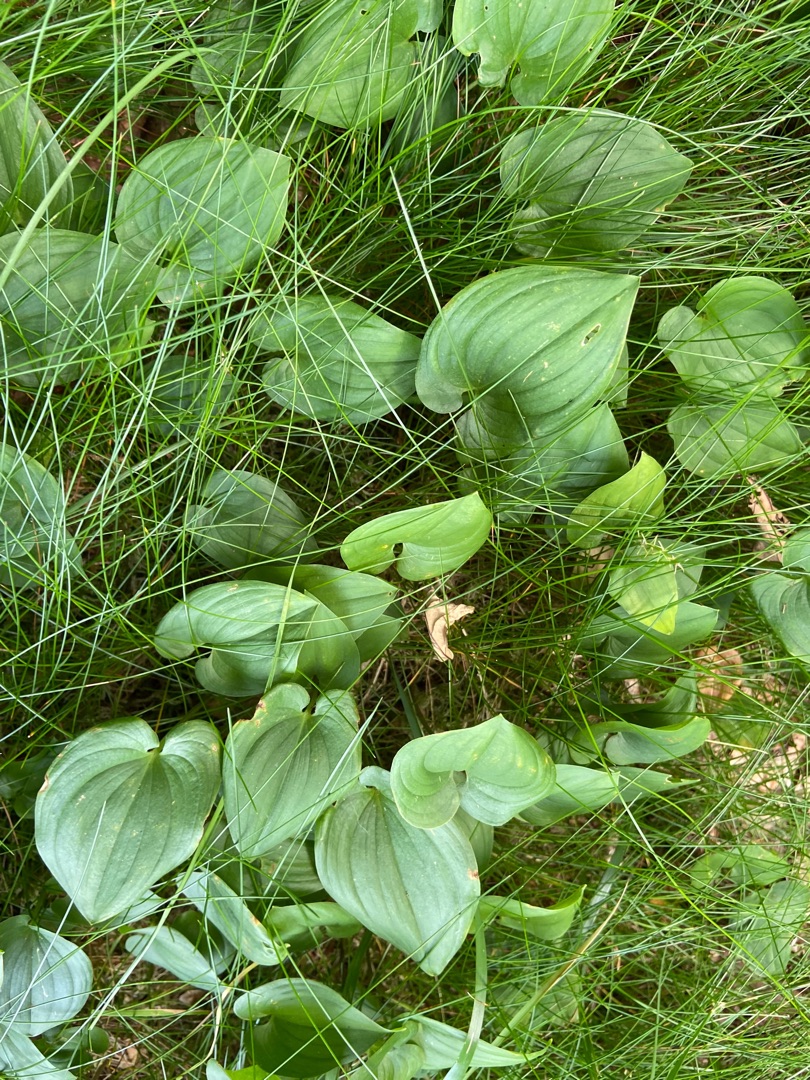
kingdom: Plantae
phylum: Tracheophyta
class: Liliopsida
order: Asparagales
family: Asparagaceae
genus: Maianthemum
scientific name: Maianthemum bifolium
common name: Majblomst
